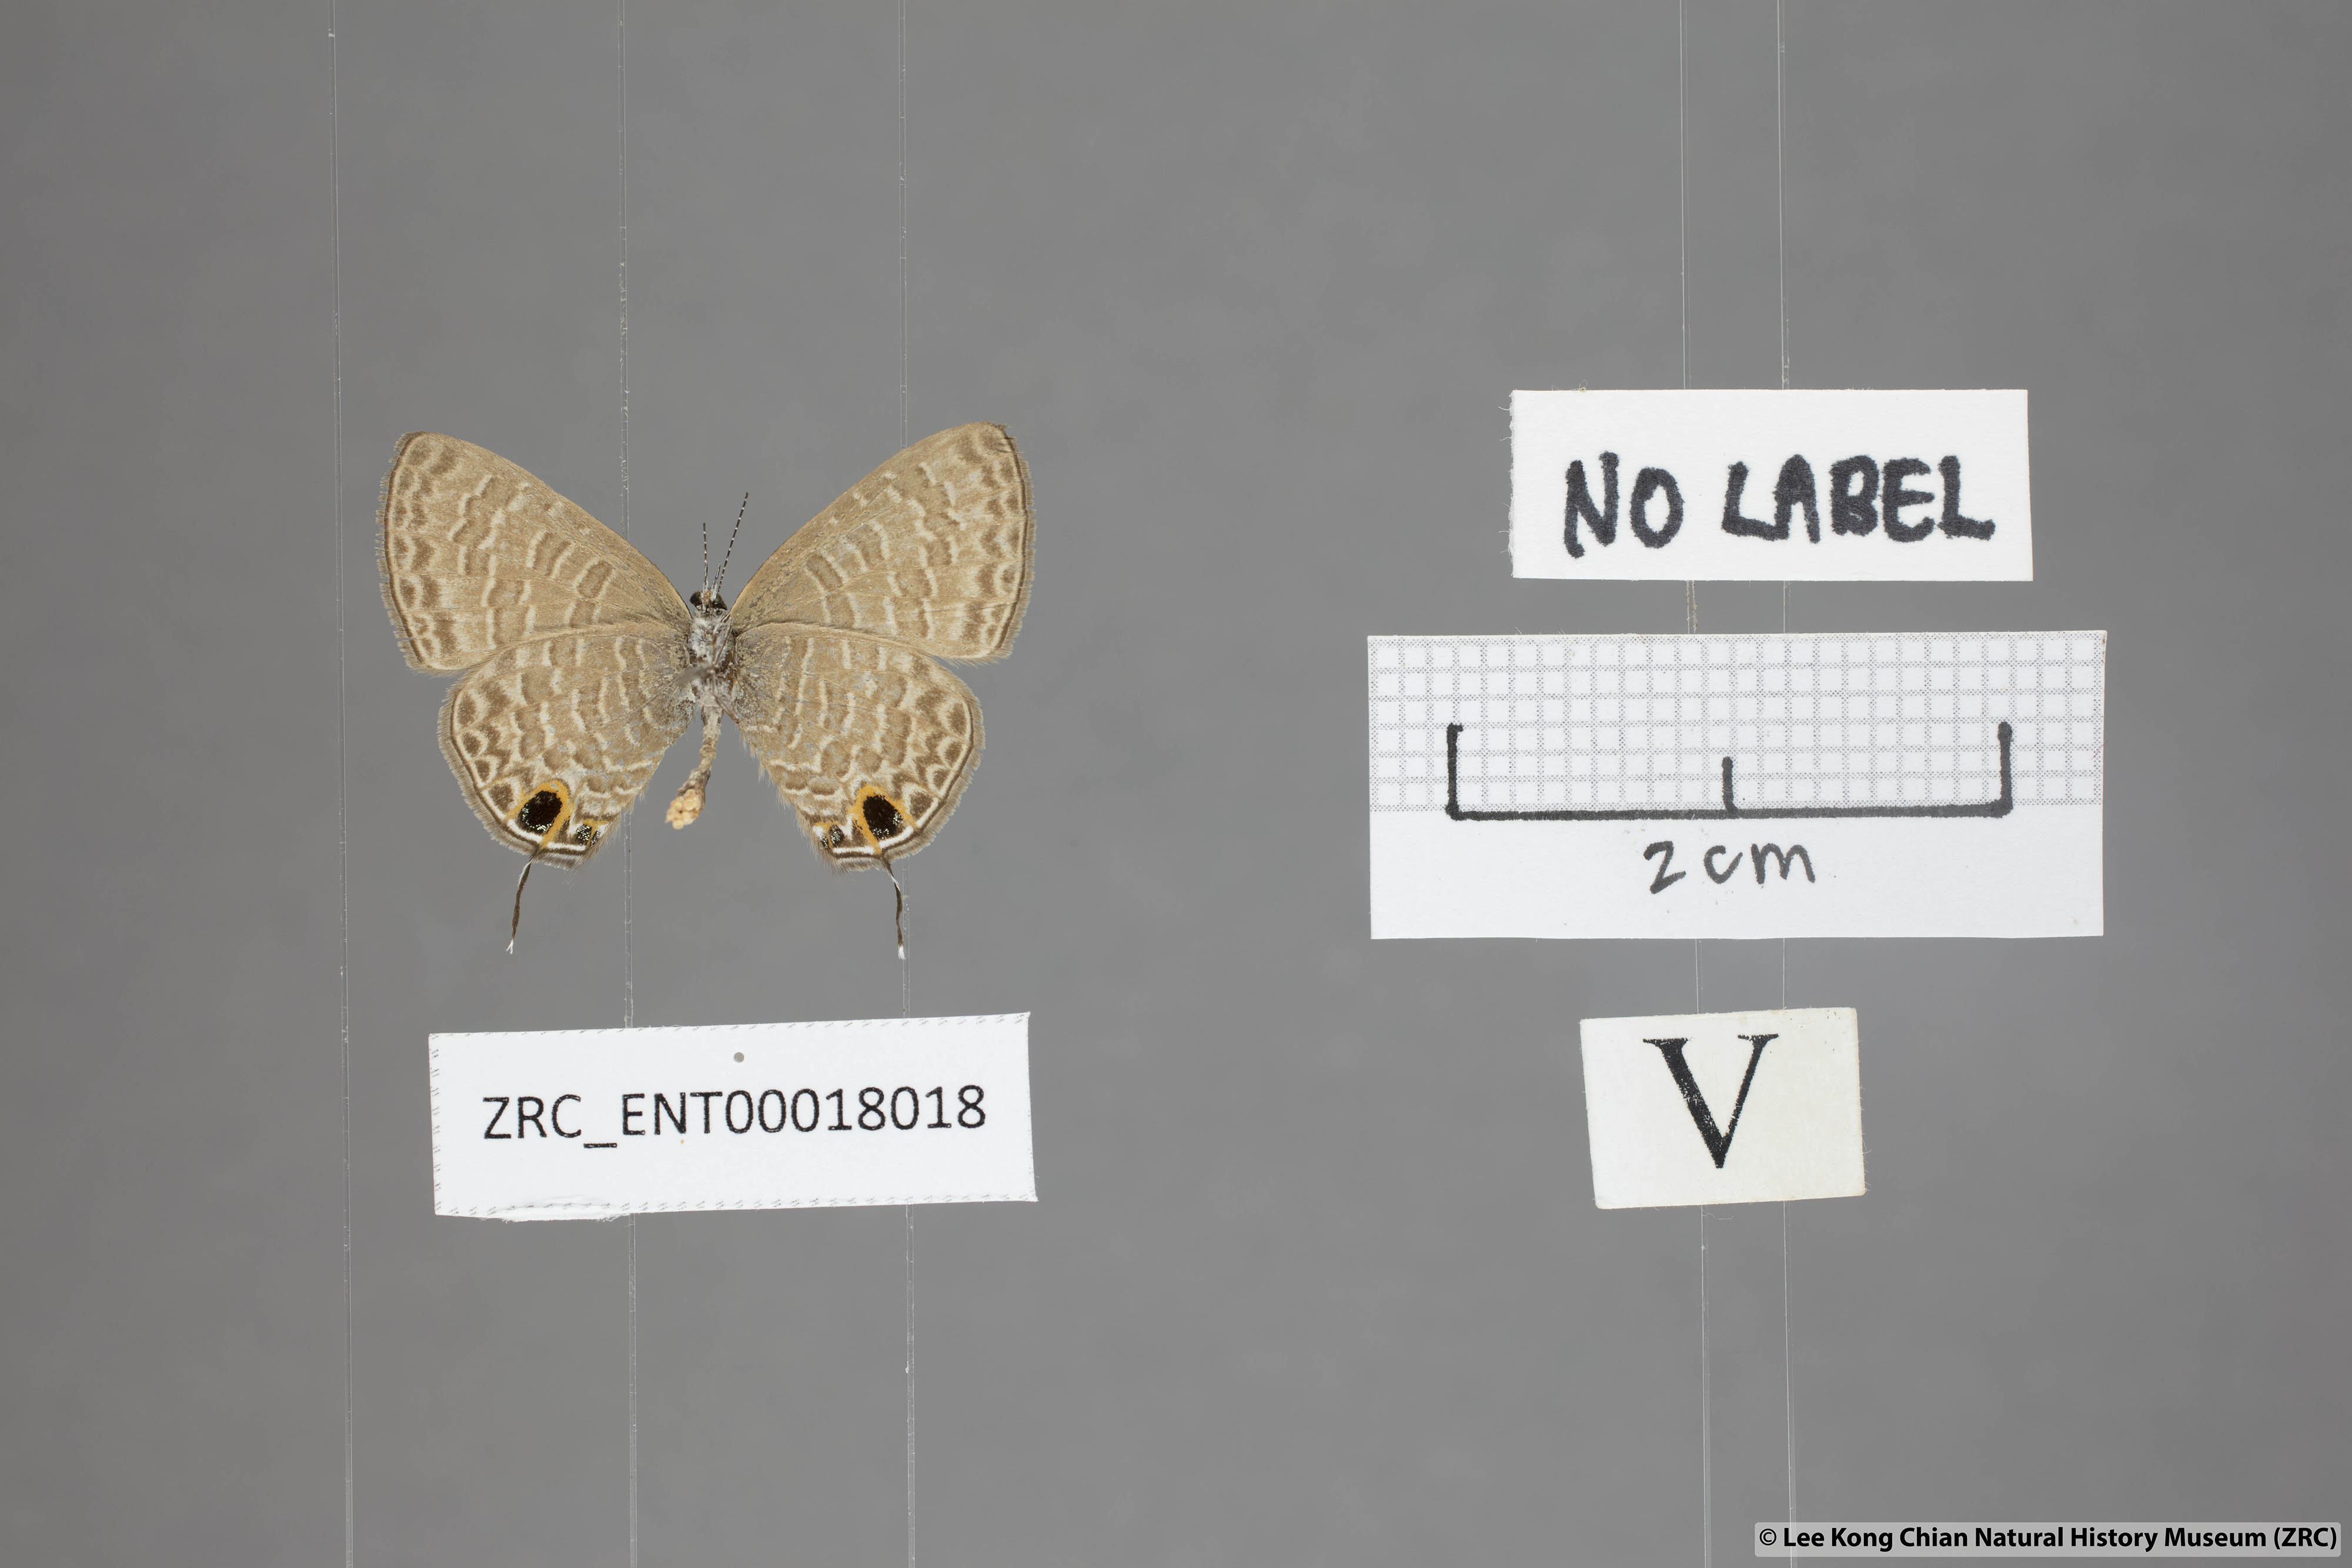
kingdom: Animalia
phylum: Arthropoda
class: Insecta
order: Lepidoptera
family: Lycaenidae
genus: Ionolyce
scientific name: Ionolyce helicon
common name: Pointed line blue
